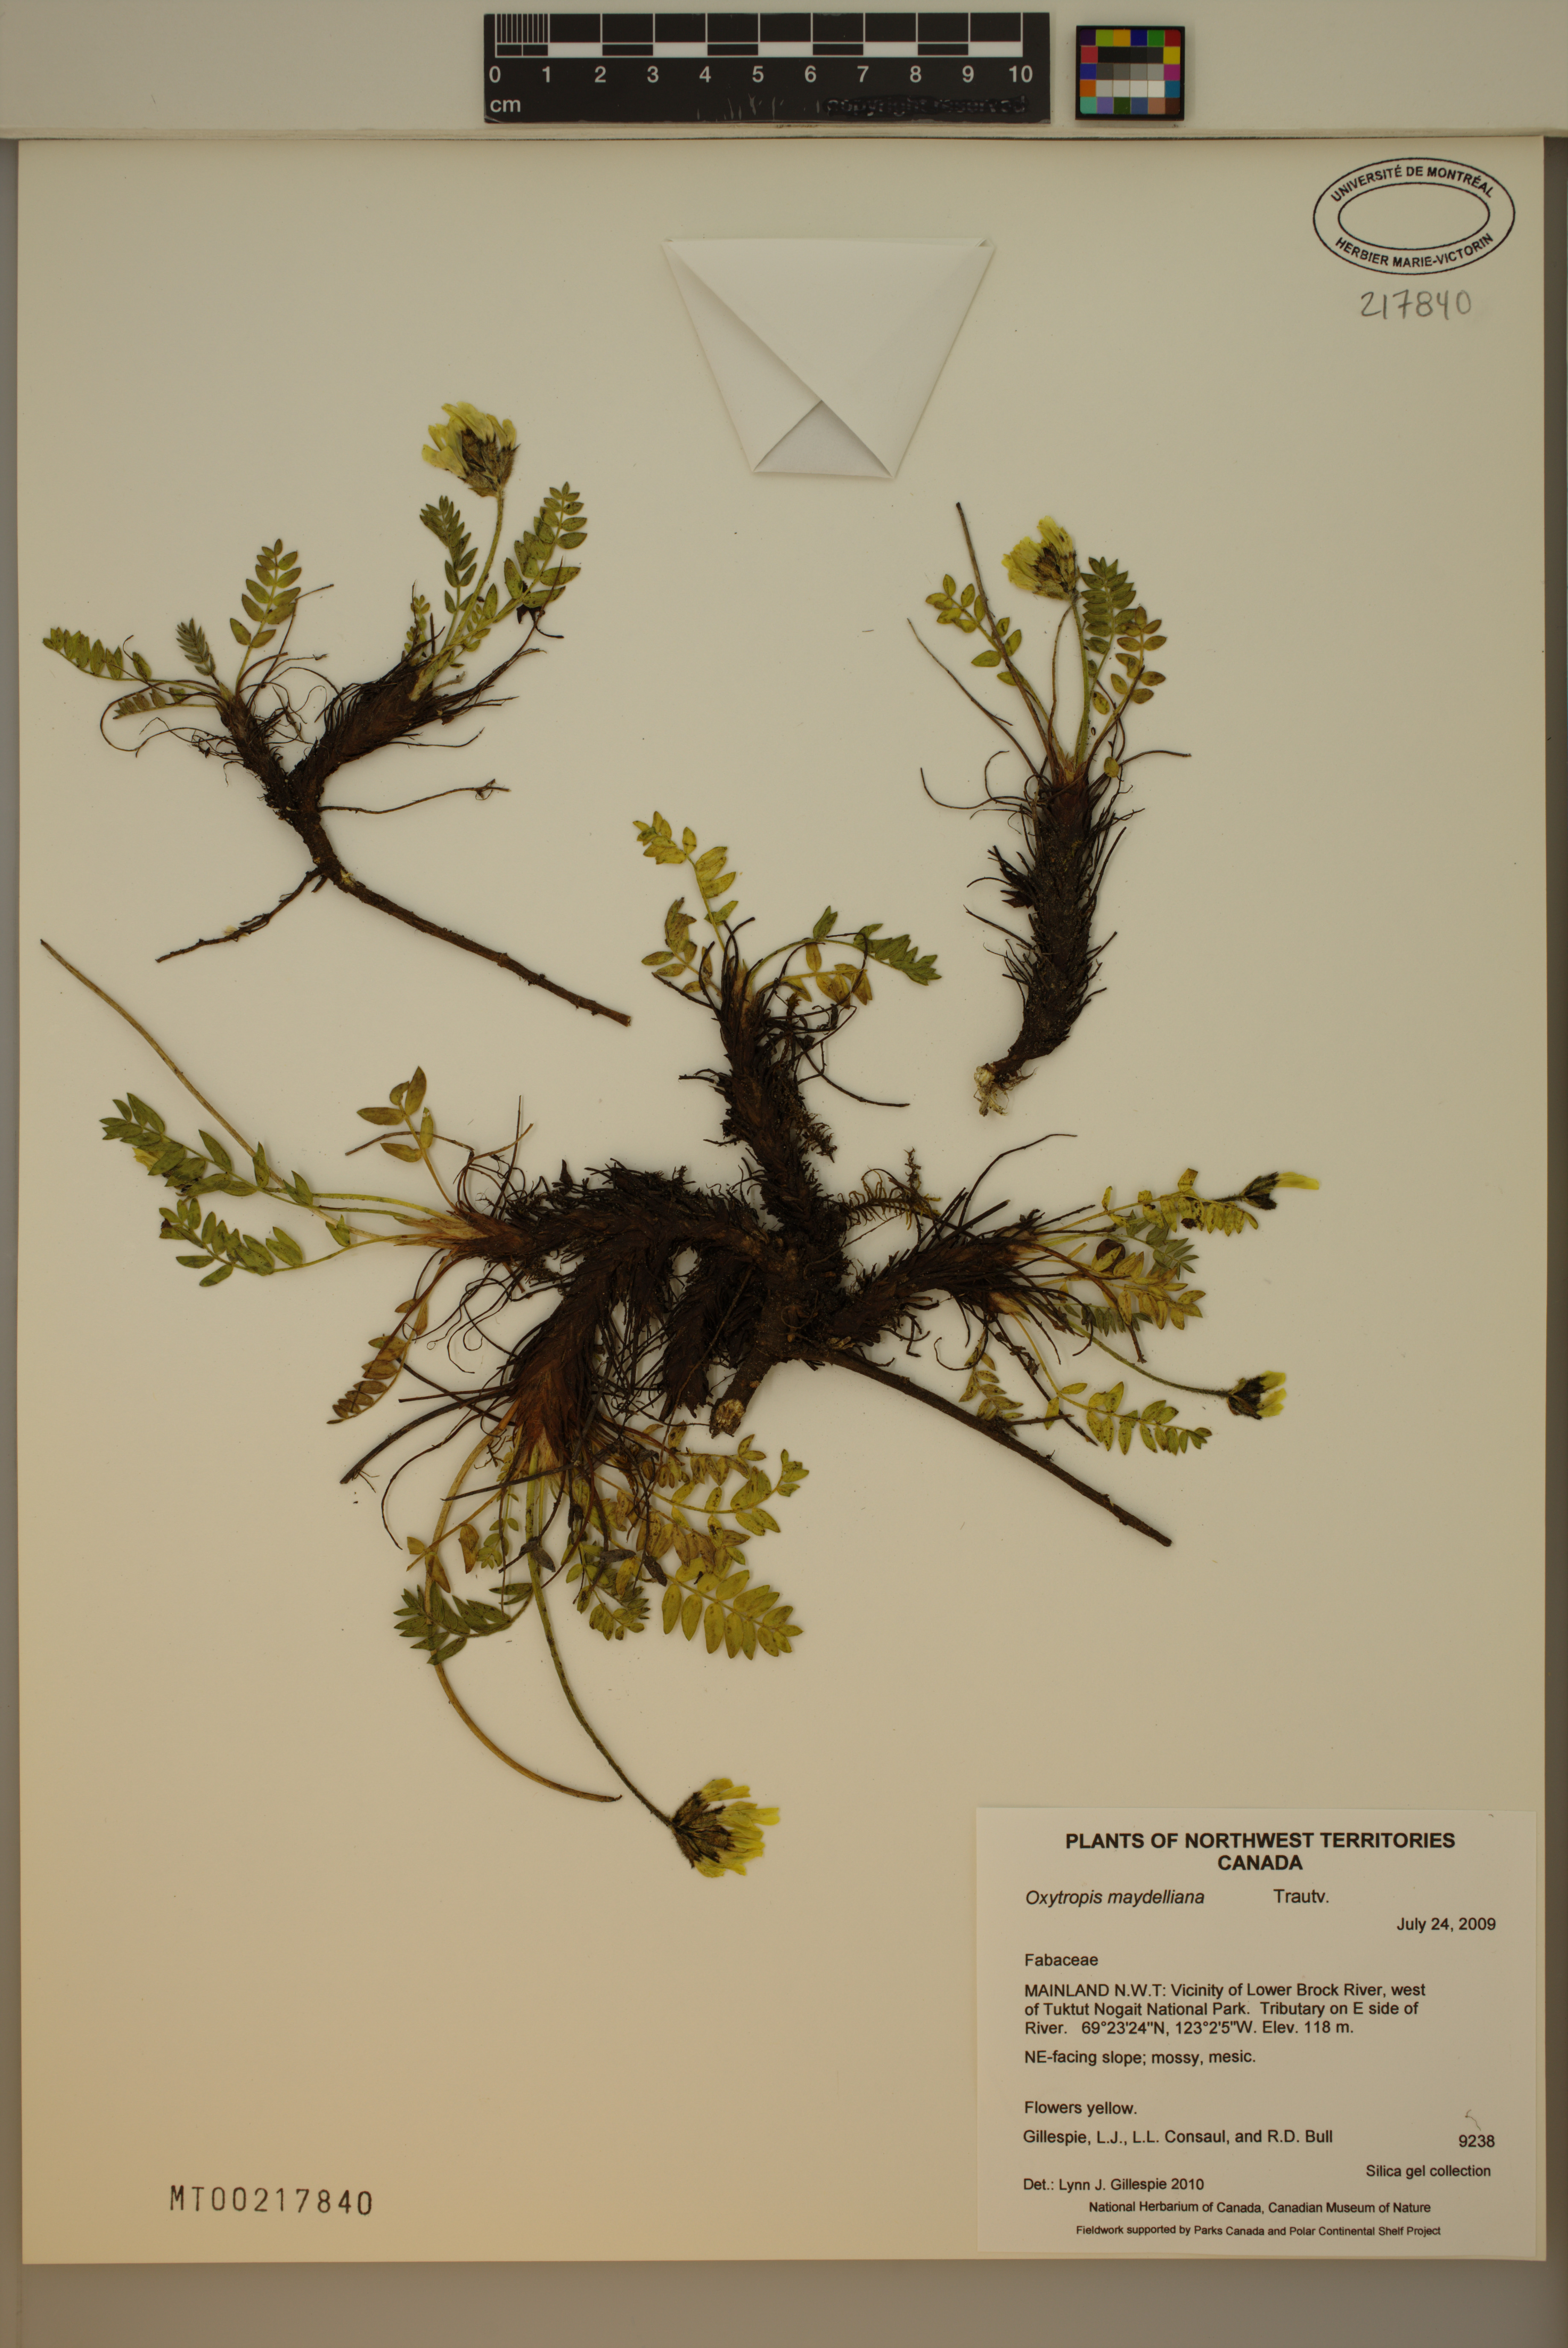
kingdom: Plantae
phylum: Tracheophyta
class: Magnoliopsida
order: Fabales
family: Fabaceae
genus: Oxytropis
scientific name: Oxytropis maydelliana
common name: Maydell's locoweed
